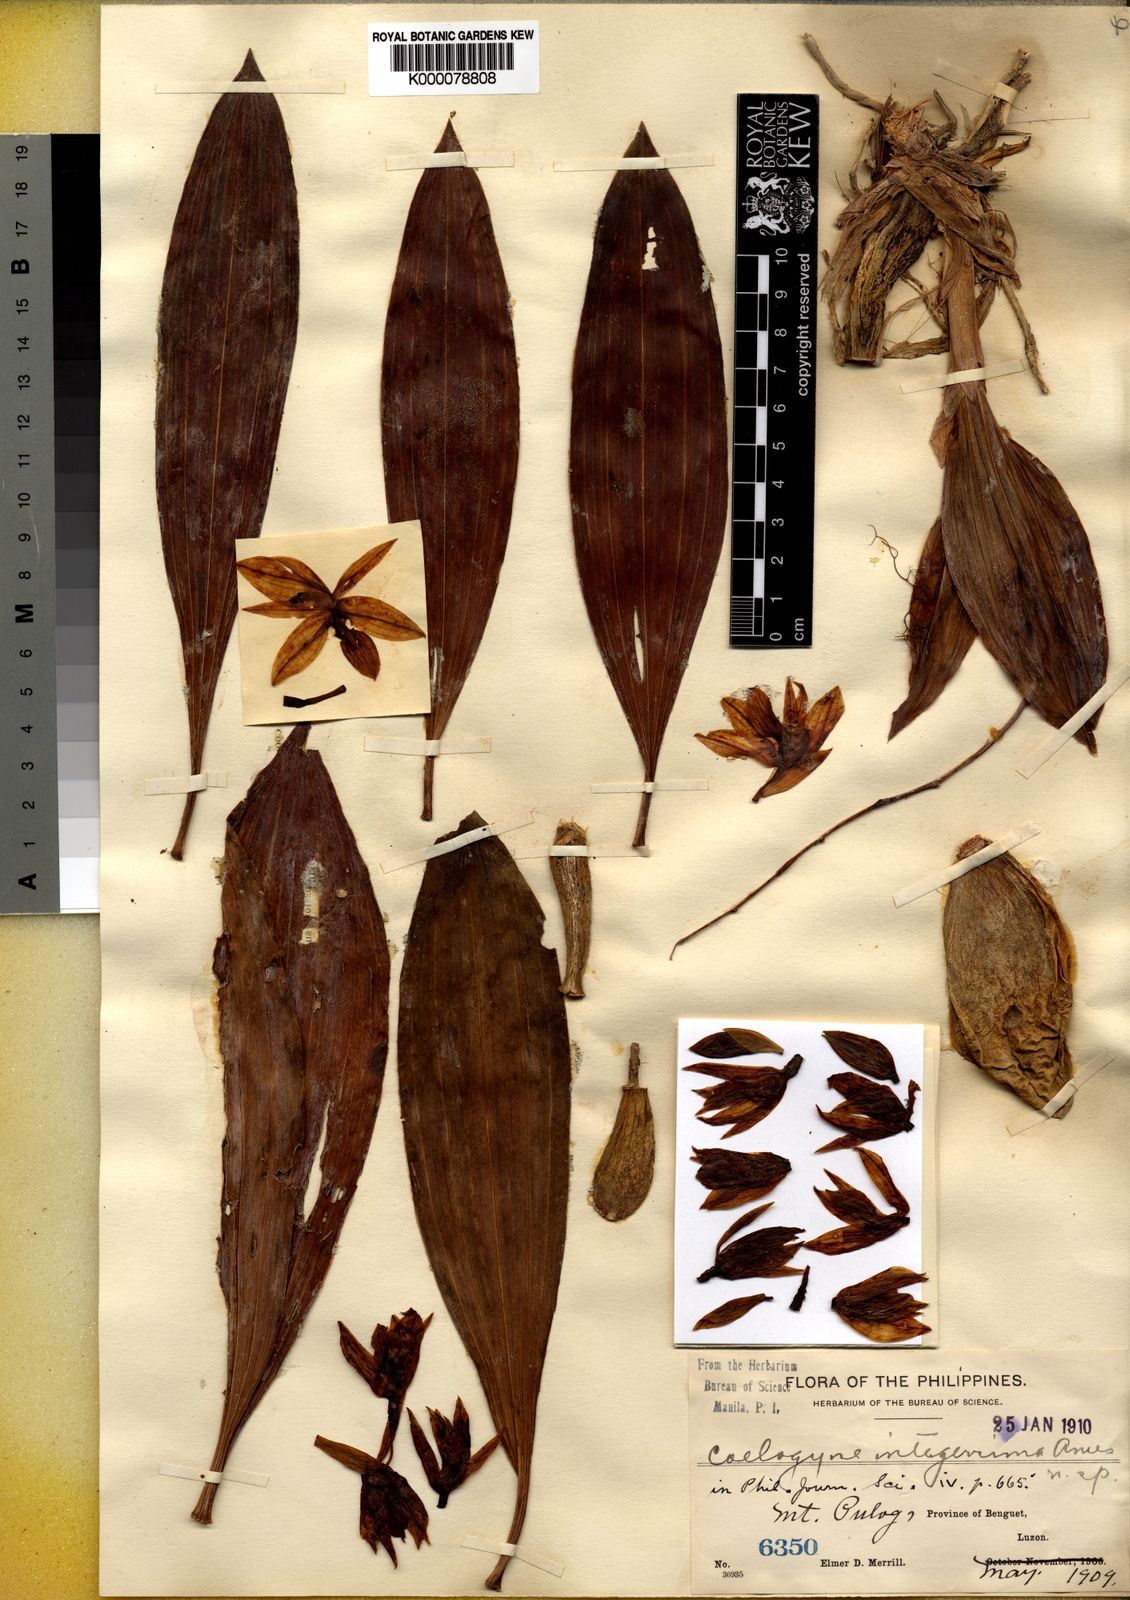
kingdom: Plantae
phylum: Tracheophyta
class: Liliopsida
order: Asparagales
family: Orchidaceae
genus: Coelogyne
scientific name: Coelogyne integerrima
